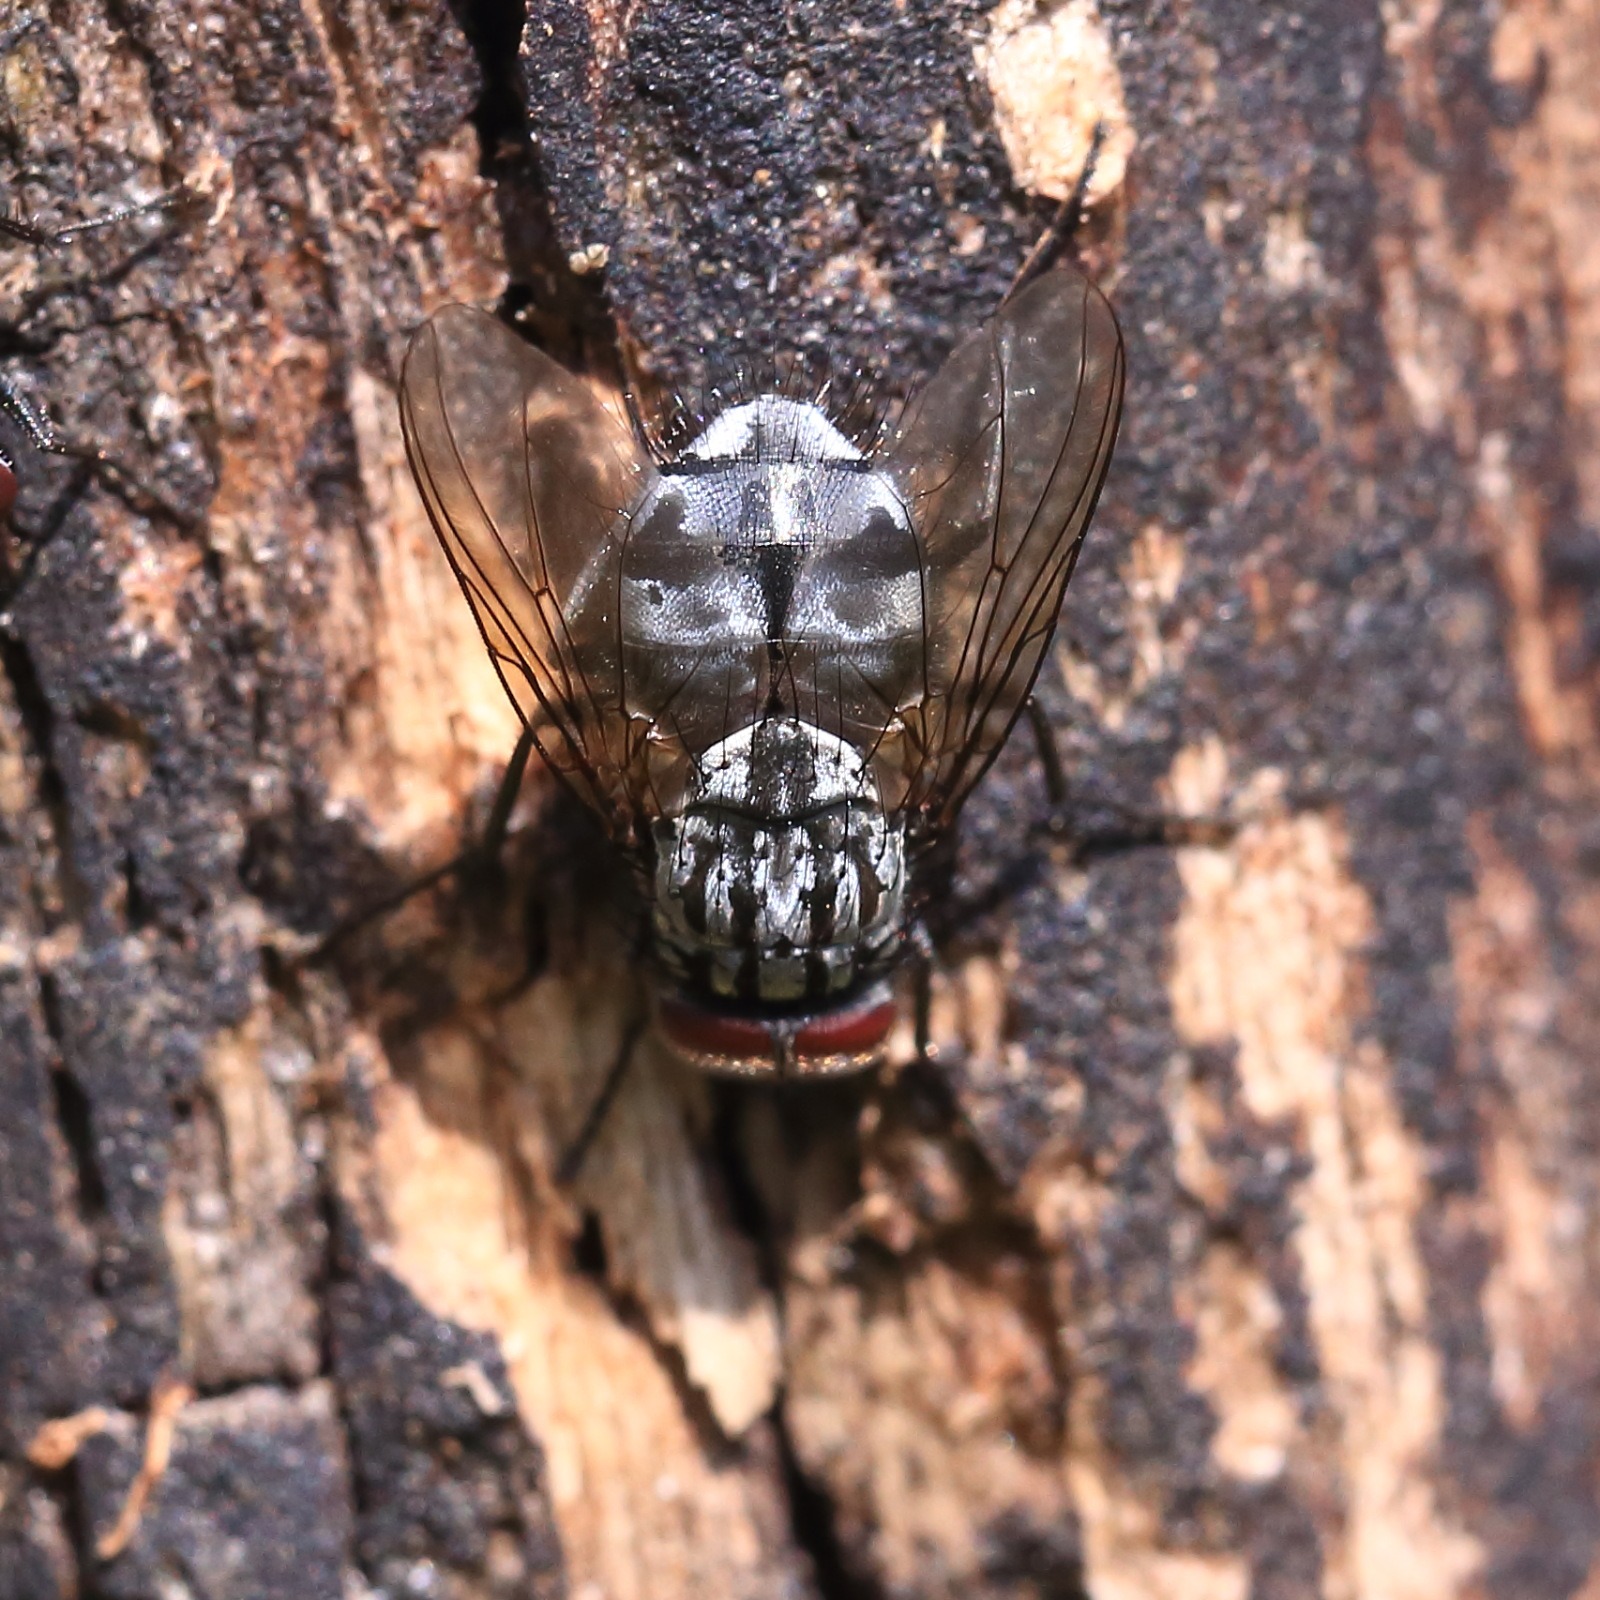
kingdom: Animalia
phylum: Arthropoda
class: Insecta
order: Diptera
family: Muscidae
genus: Polietes
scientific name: Polietes lardaria
